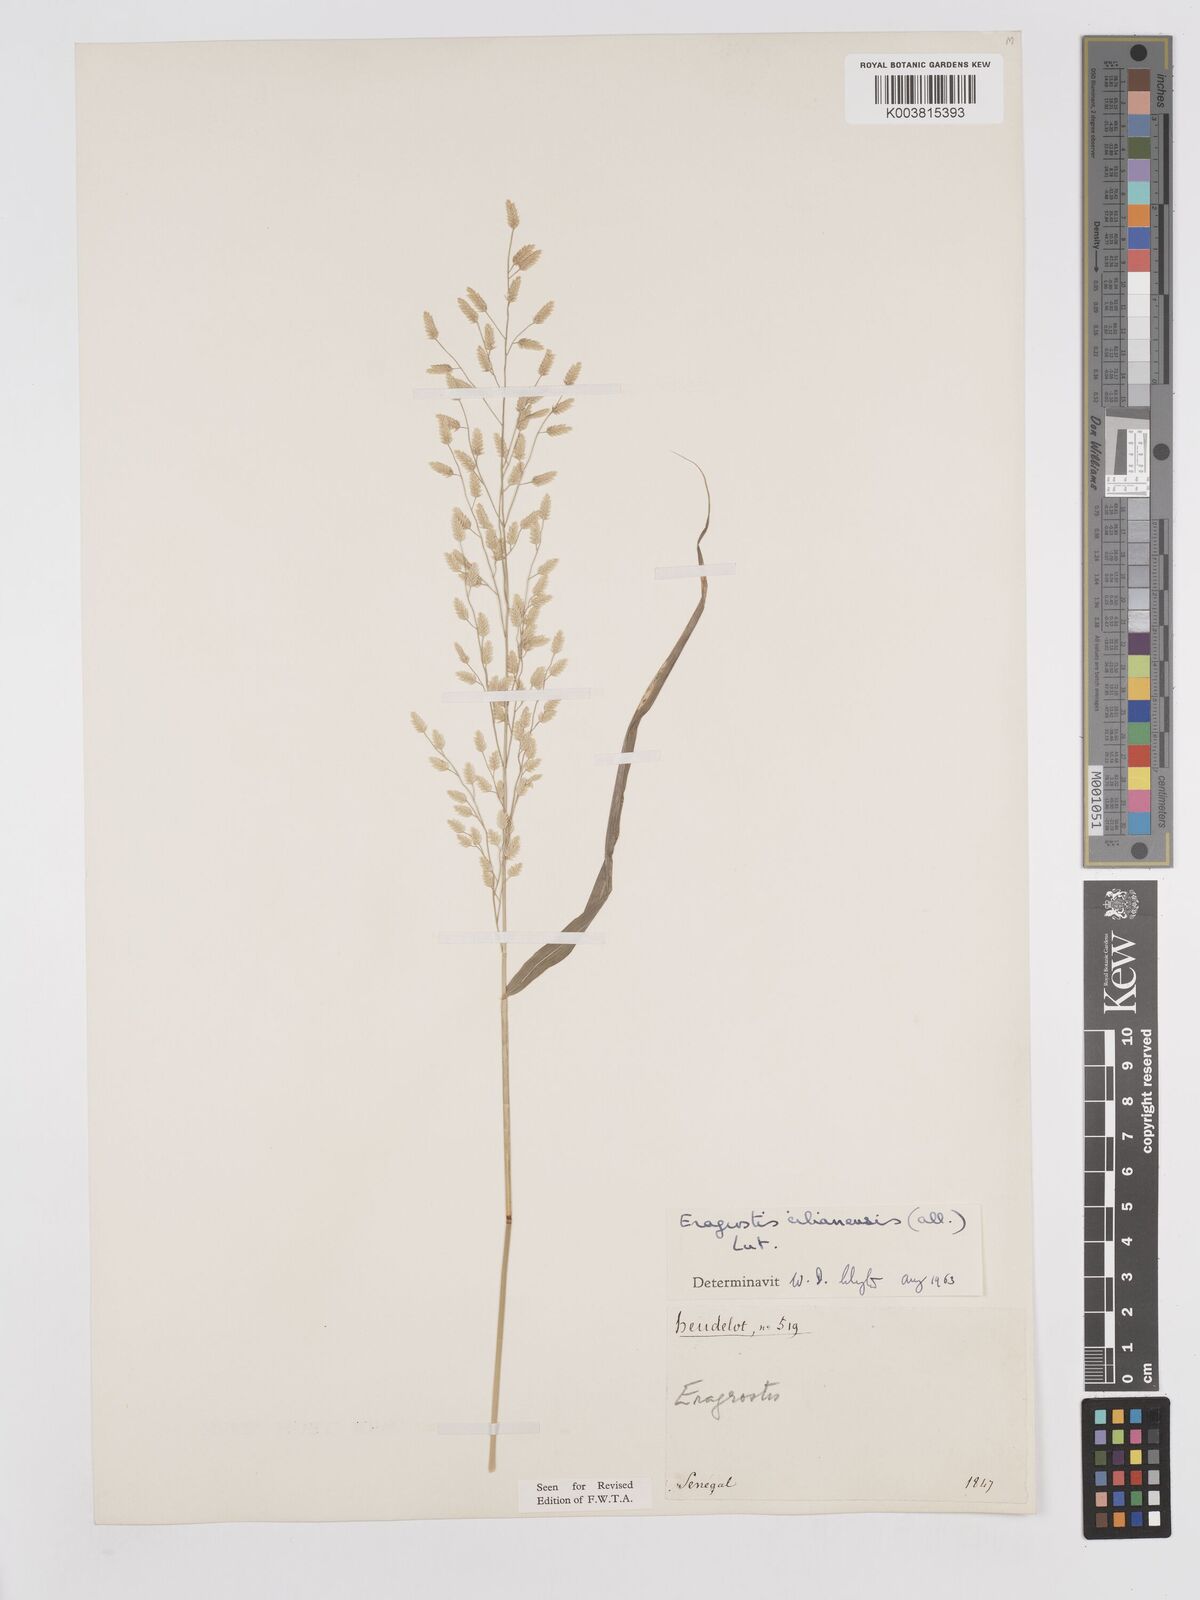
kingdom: Plantae
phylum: Tracheophyta
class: Liliopsida
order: Poales
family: Poaceae
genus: Eragrostis
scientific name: Eragrostis cilianensis
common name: Stinkgrass
